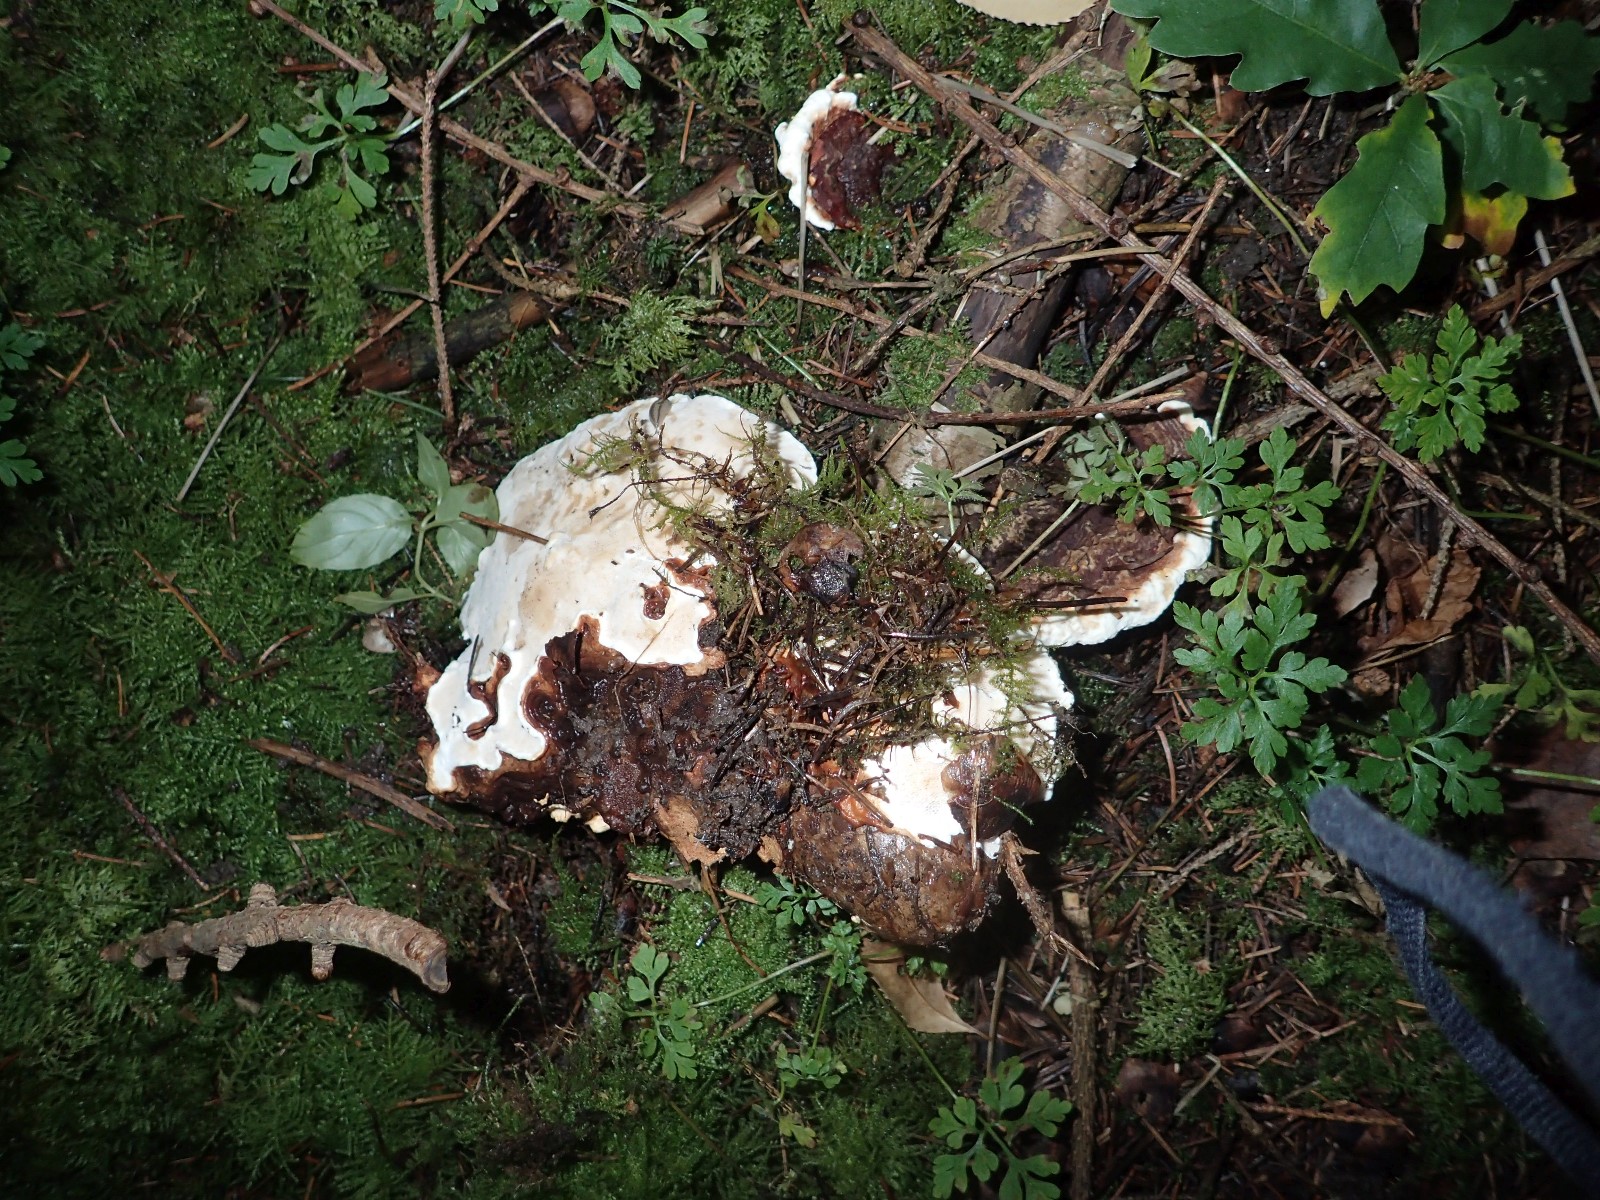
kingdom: Fungi
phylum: Basidiomycota
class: Agaricomycetes
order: Russulales
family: Bondarzewiaceae
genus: Heterobasidion
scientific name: Heterobasidion annosum
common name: almindelig rodfordærver
